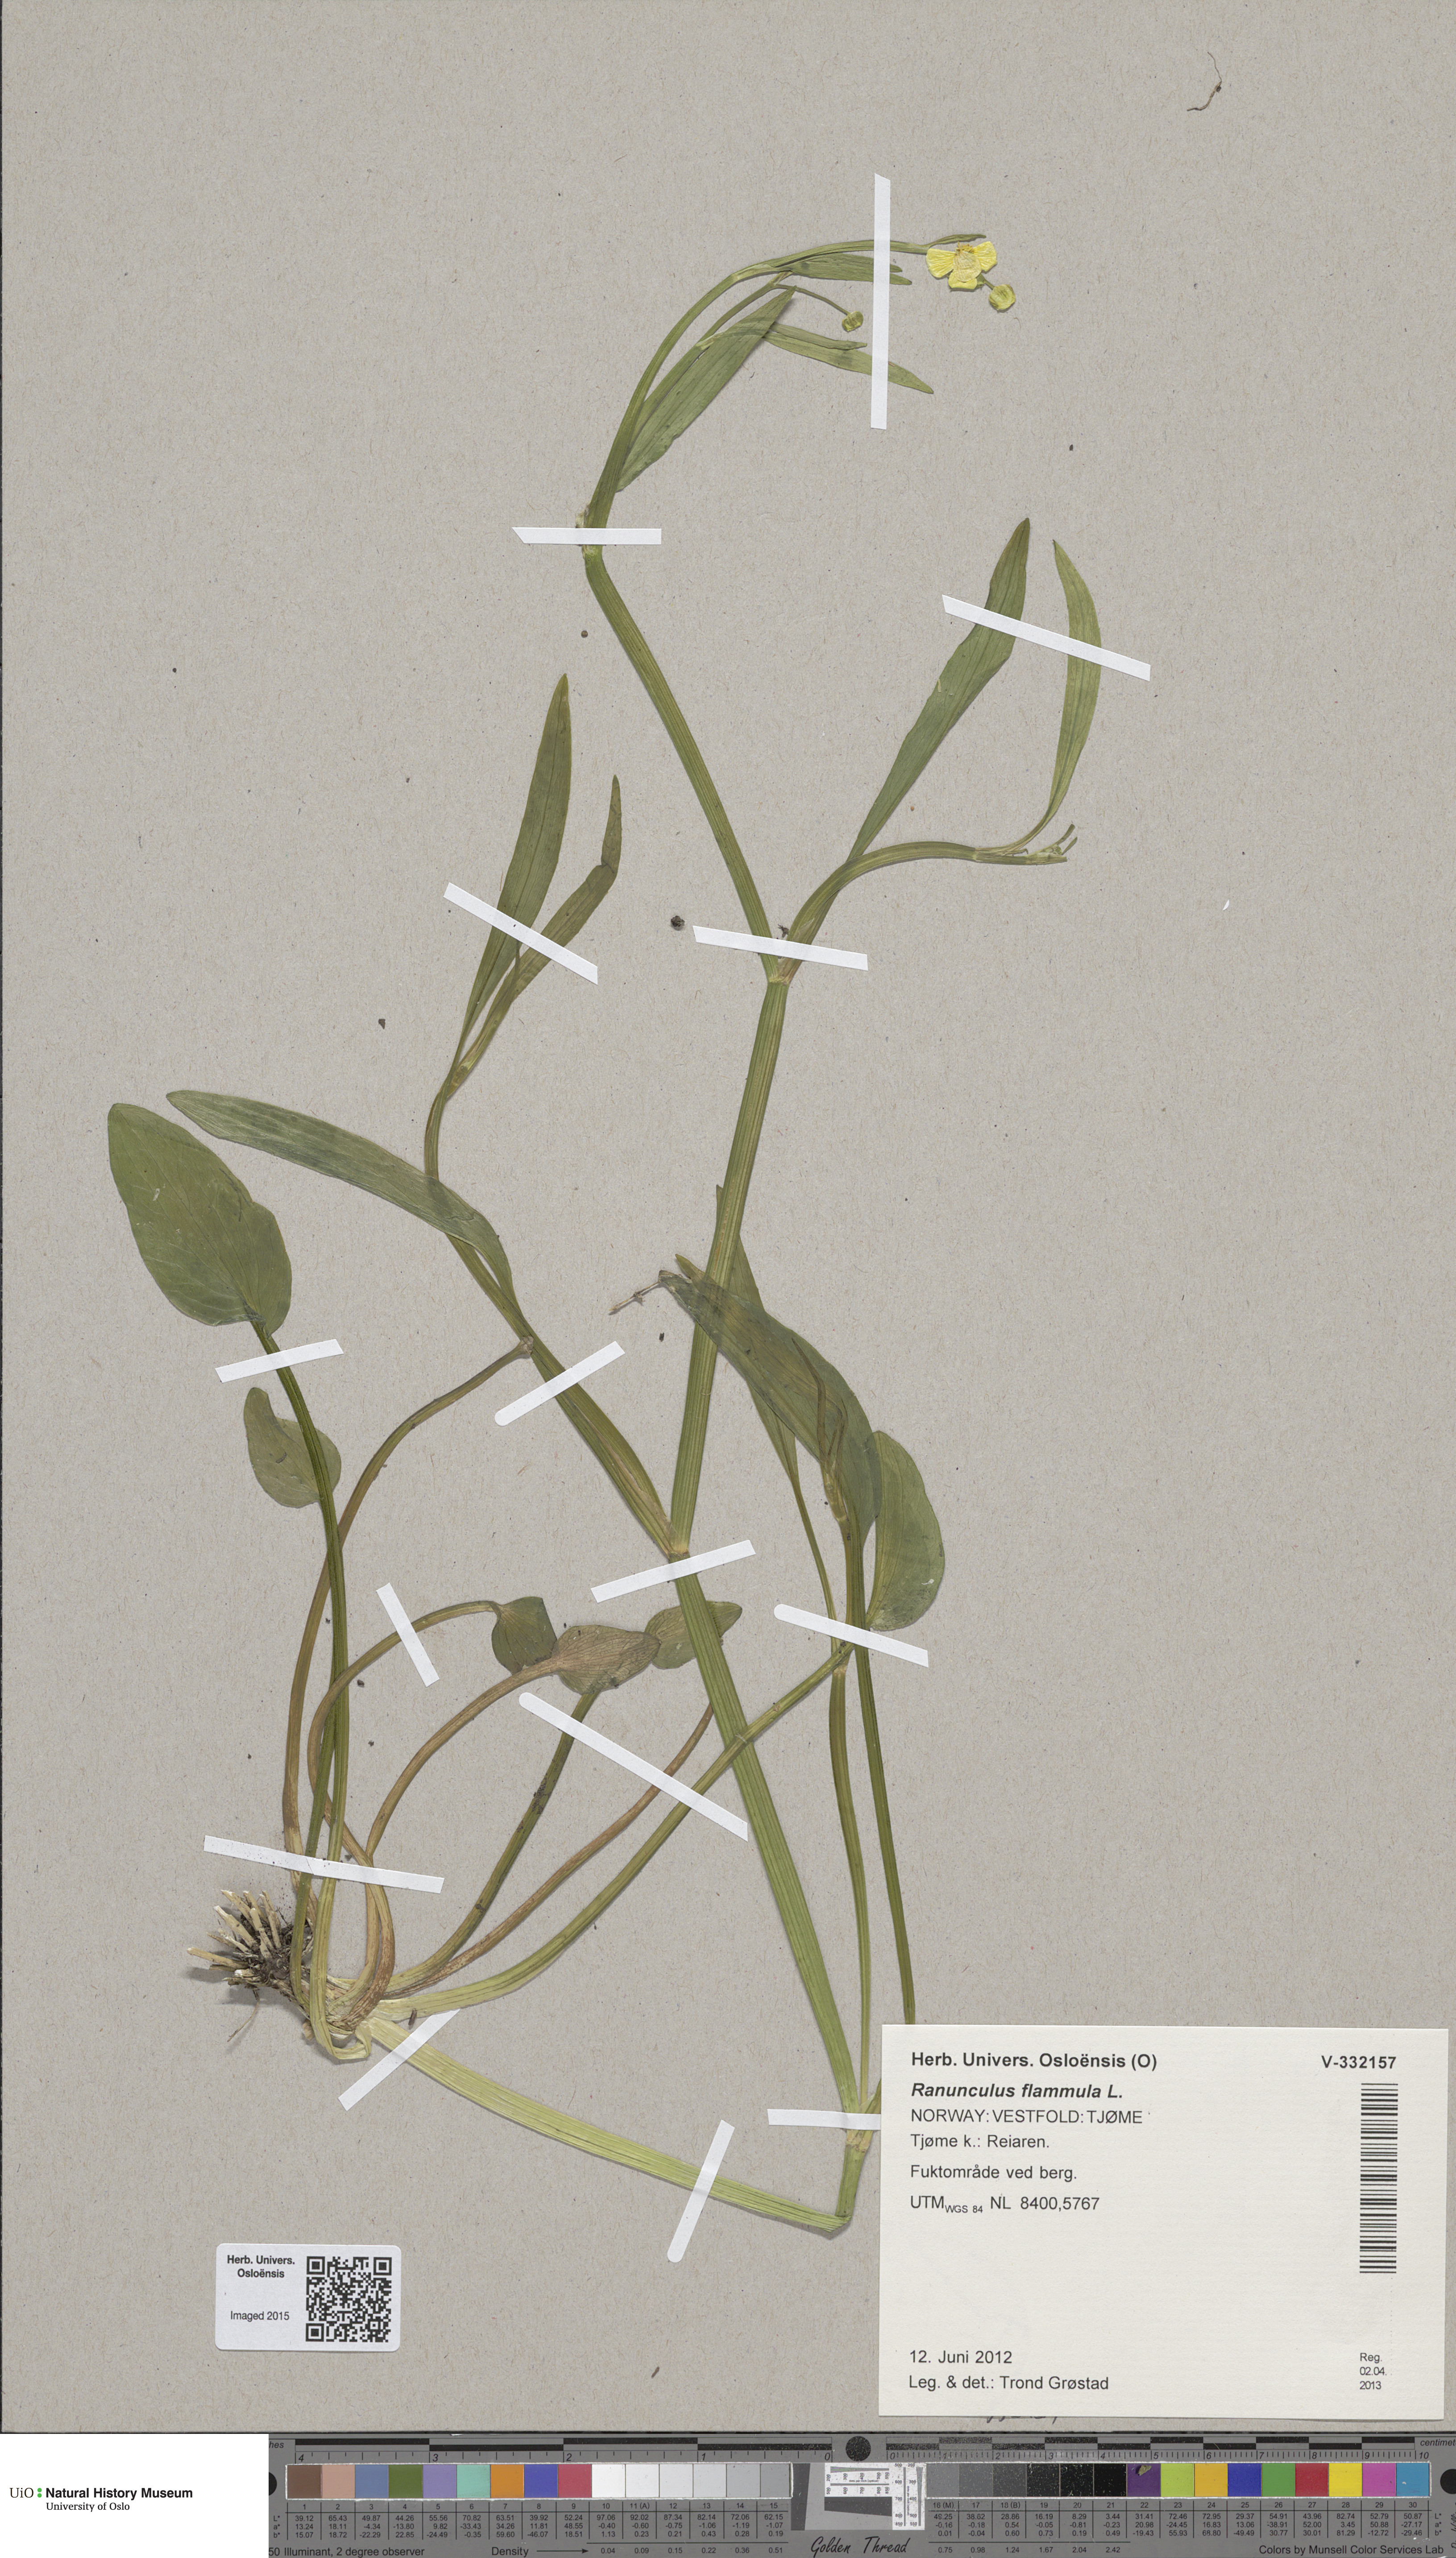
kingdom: Plantae
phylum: Tracheophyta
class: Magnoliopsida
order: Ranunculales
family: Ranunculaceae
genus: Ranunculus
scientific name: Ranunculus flammula
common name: Lesser spearwort
